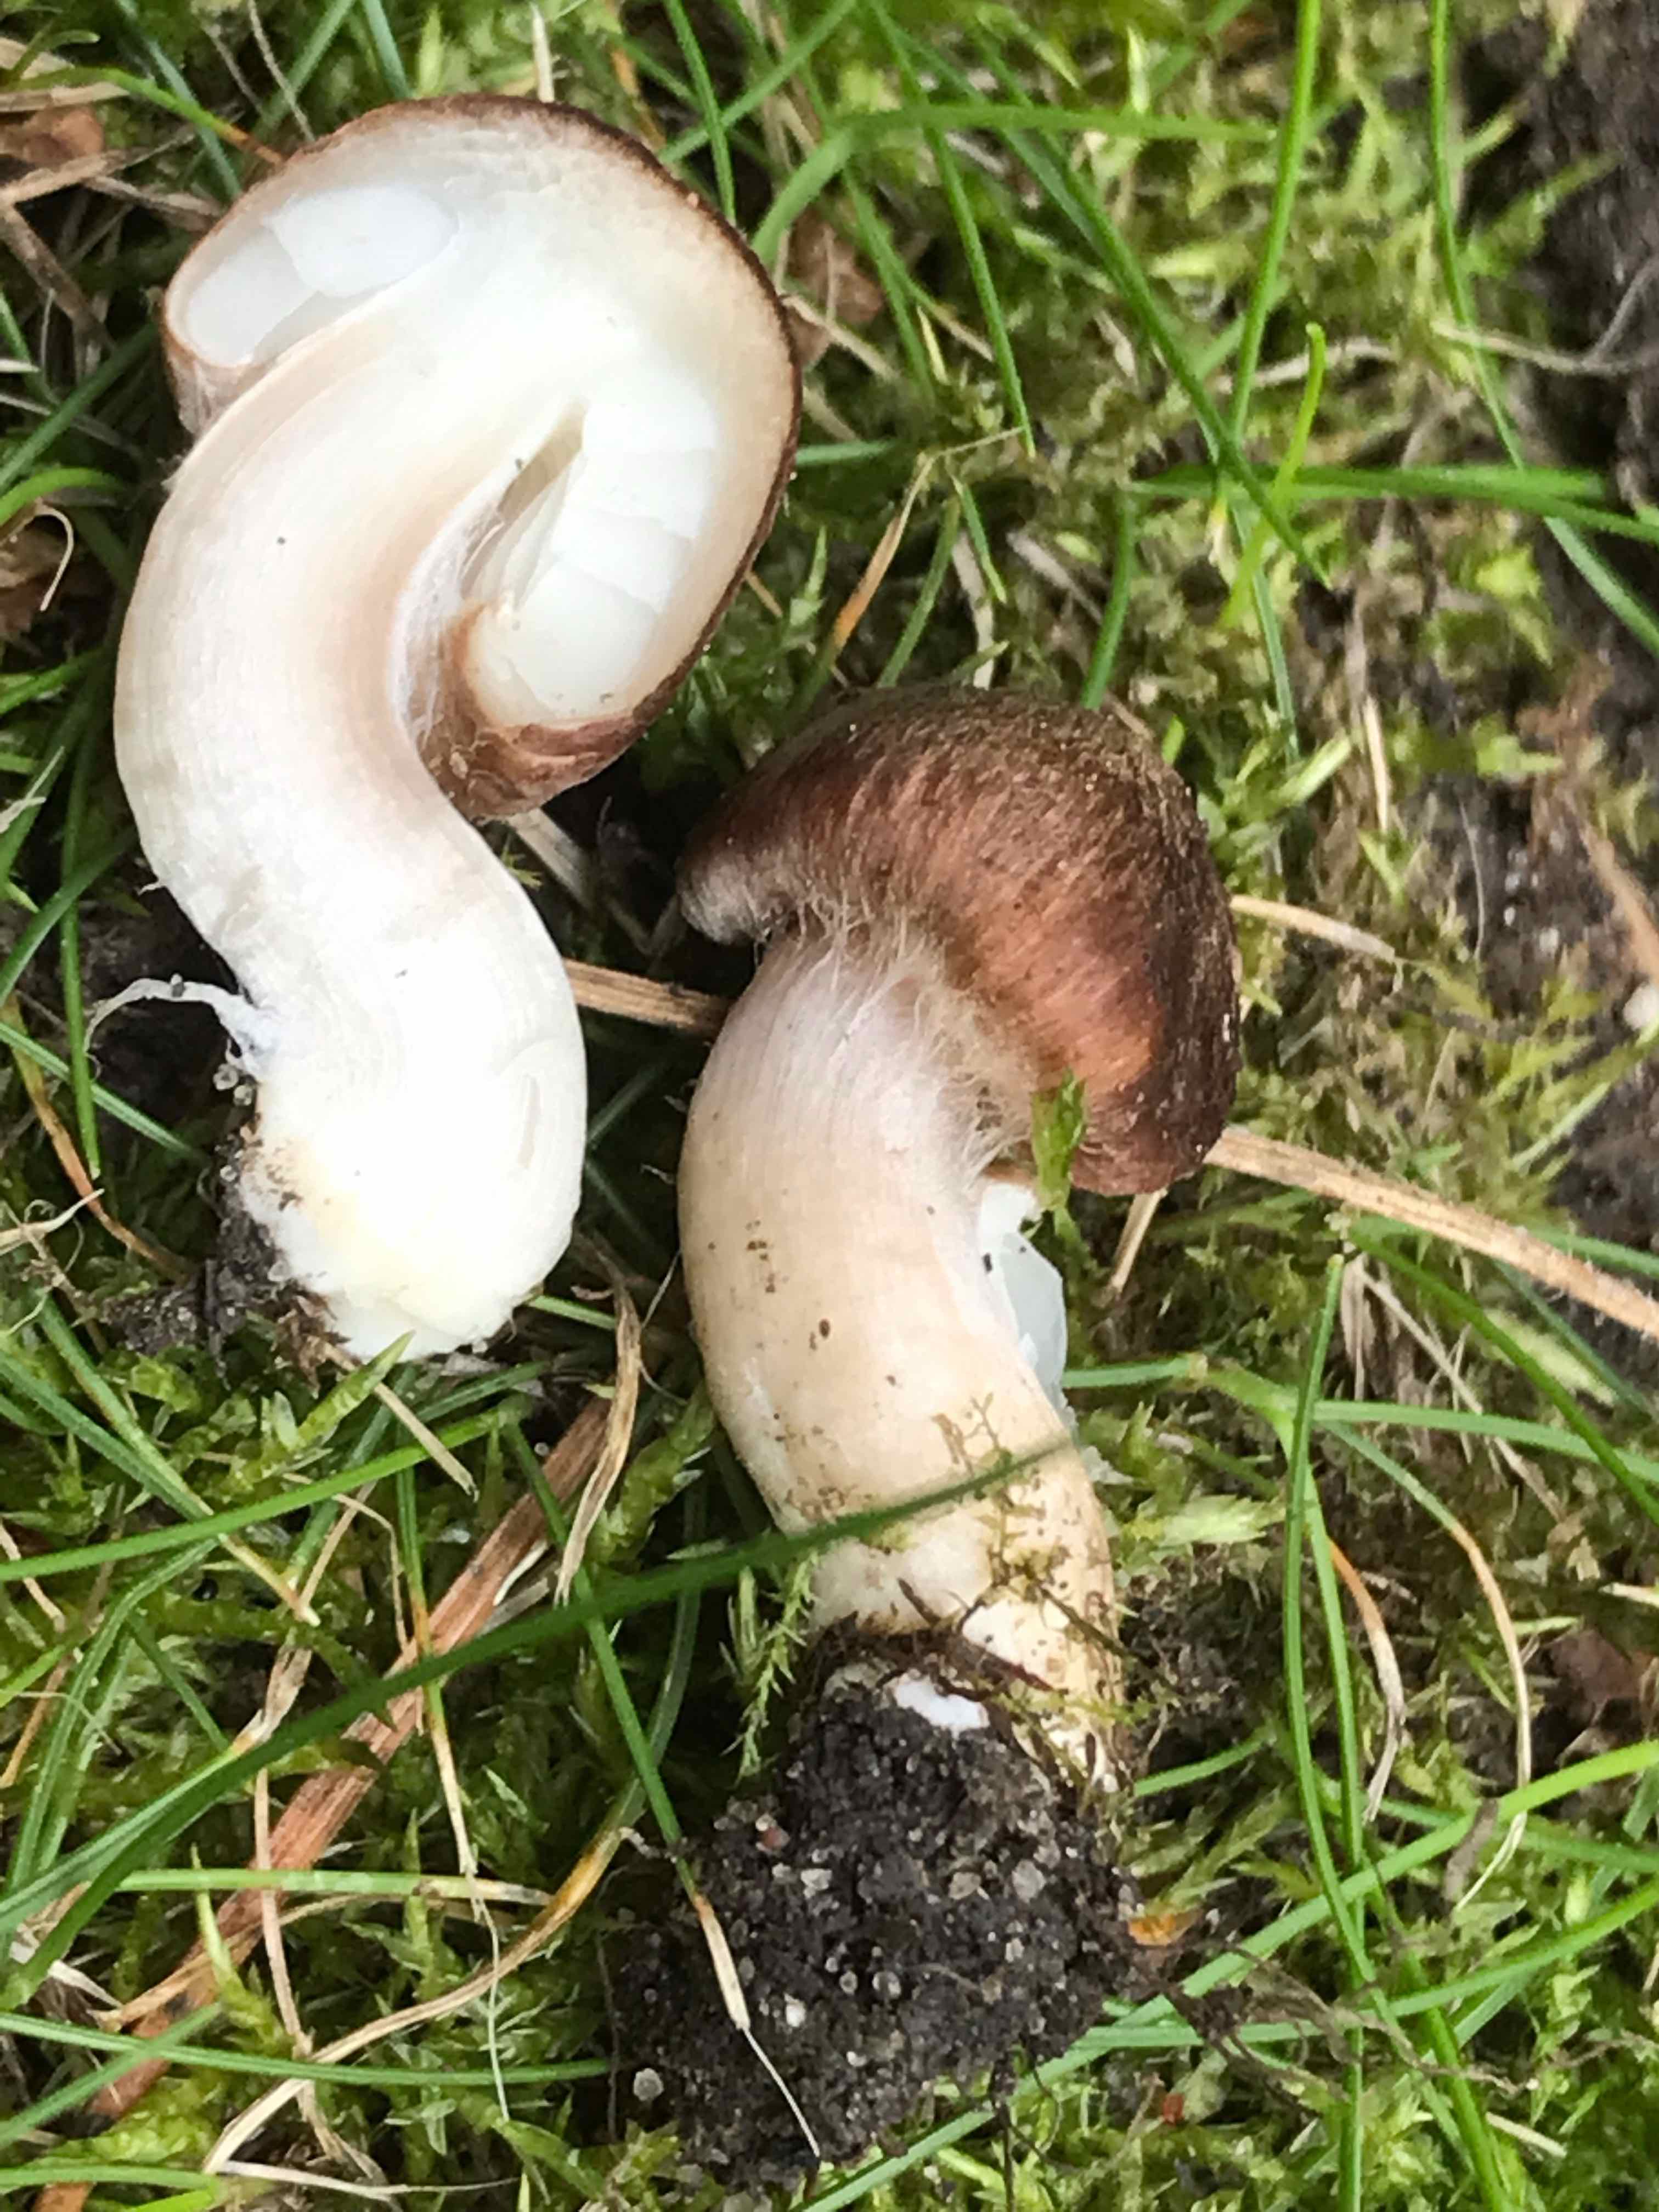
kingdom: Fungi
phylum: Basidiomycota
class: Agaricomycetes
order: Agaricales
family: Inocybaceae
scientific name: Inocybaceae
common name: trævlhatfamilien
